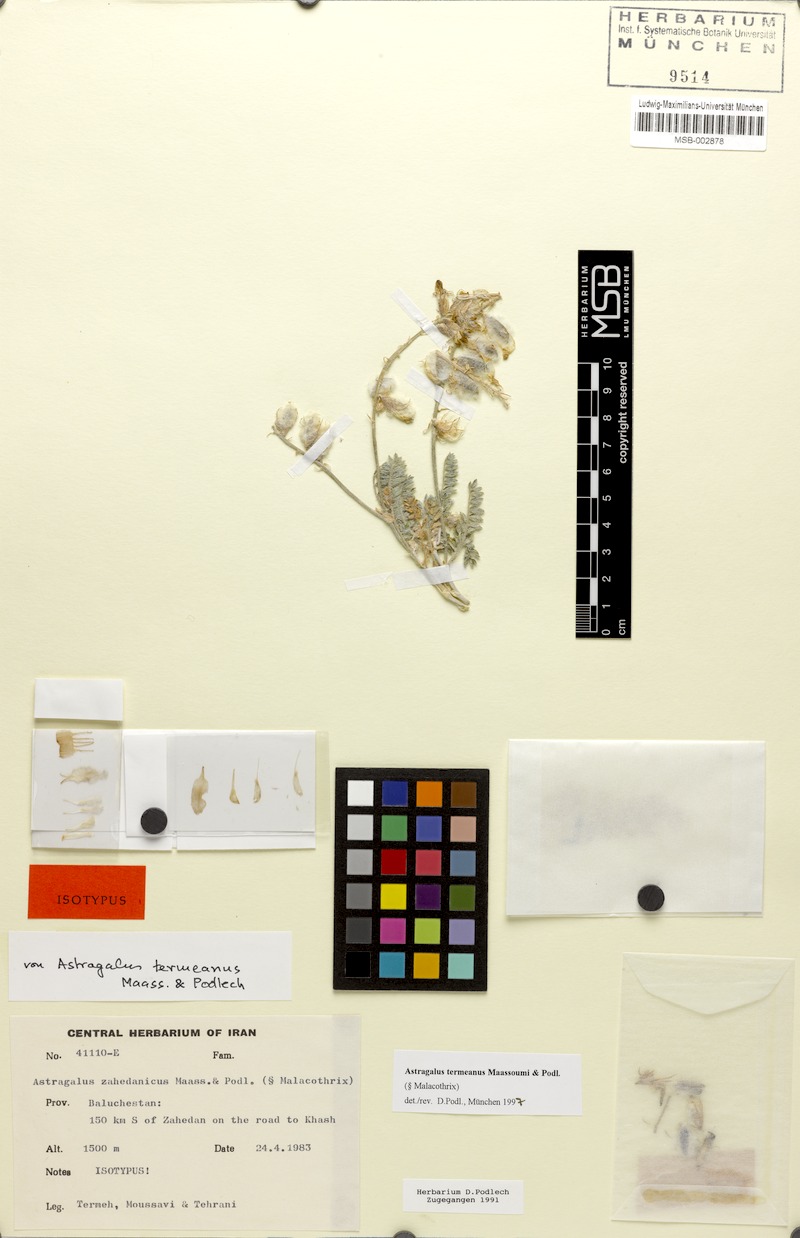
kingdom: Plantae
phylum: Tracheophyta
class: Magnoliopsida
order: Fabales
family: Fabaceae
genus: Astragalus
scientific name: Astragalus termeanus
